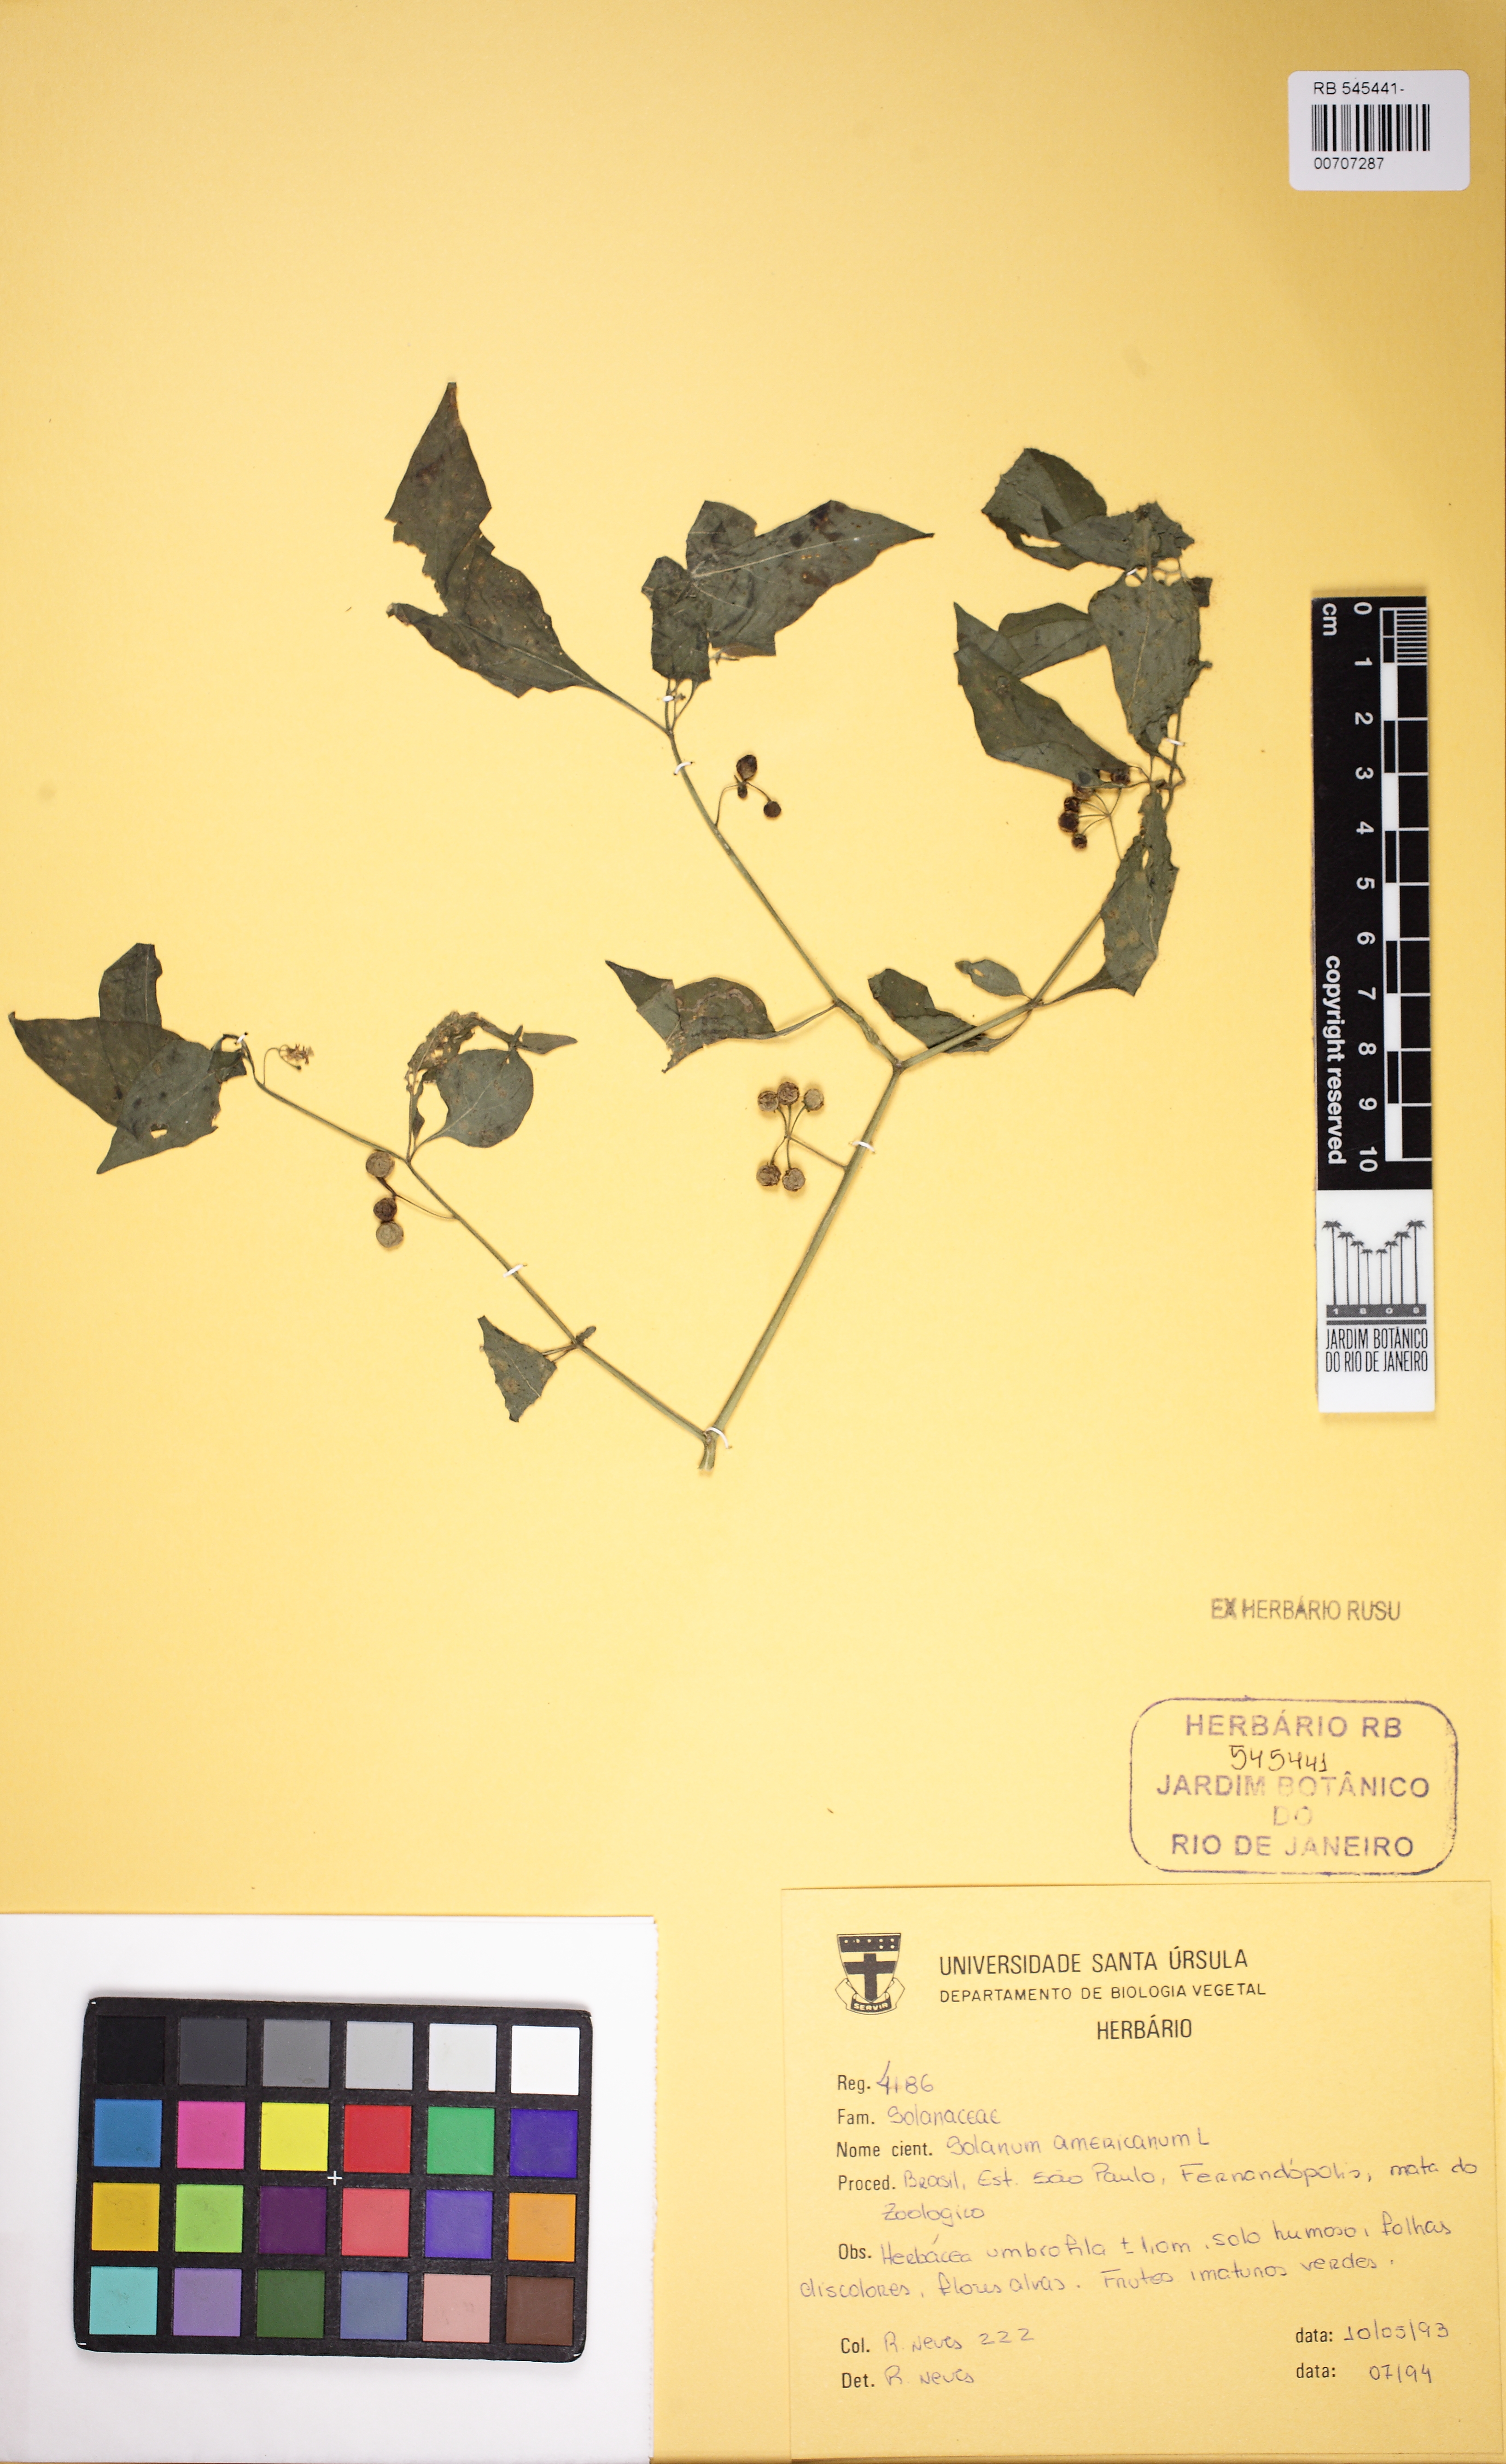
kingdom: Plantae
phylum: Tracheophyta
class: Magnoliopsida
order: Solanales
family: Solanaceae
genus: Solanum
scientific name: Solanum americanum
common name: American black nightshade
